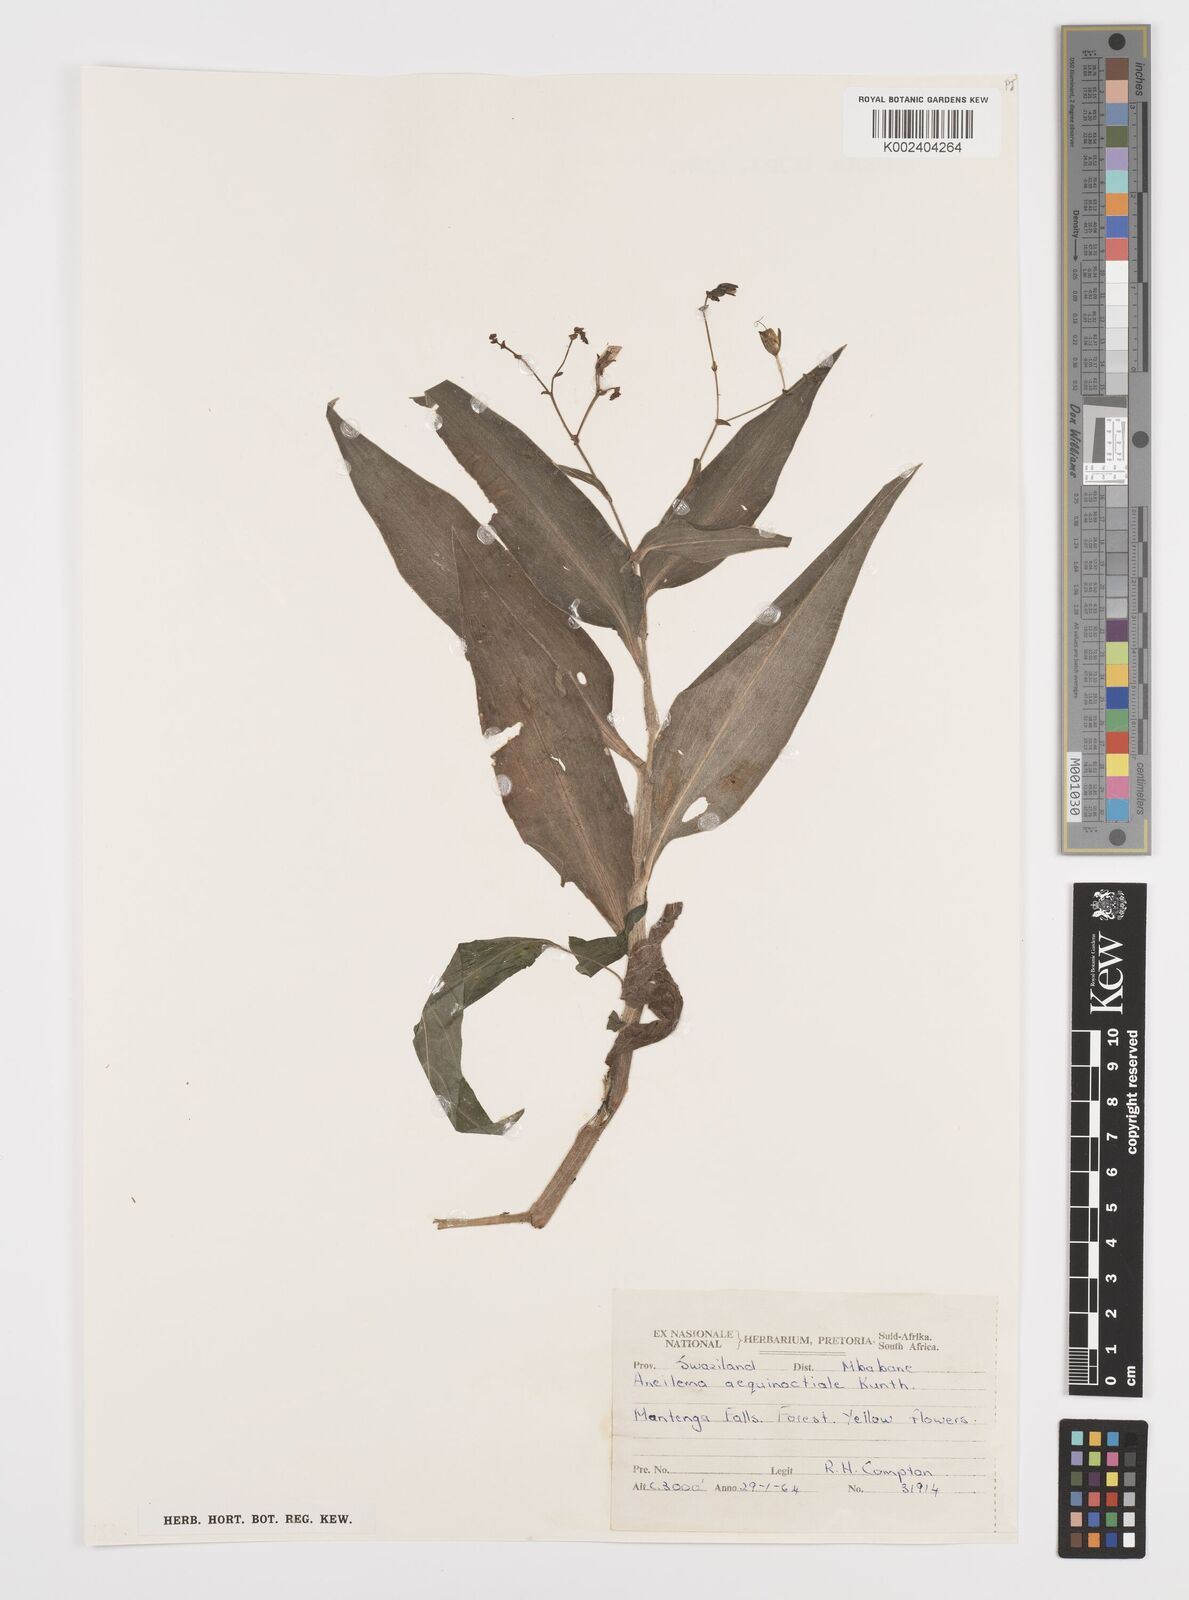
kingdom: Plantae
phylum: Tracheophyta
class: Liliopsida
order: Commelinales
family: Commelinaceae
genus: Aneilema
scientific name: Aneilema aequinoctiale
